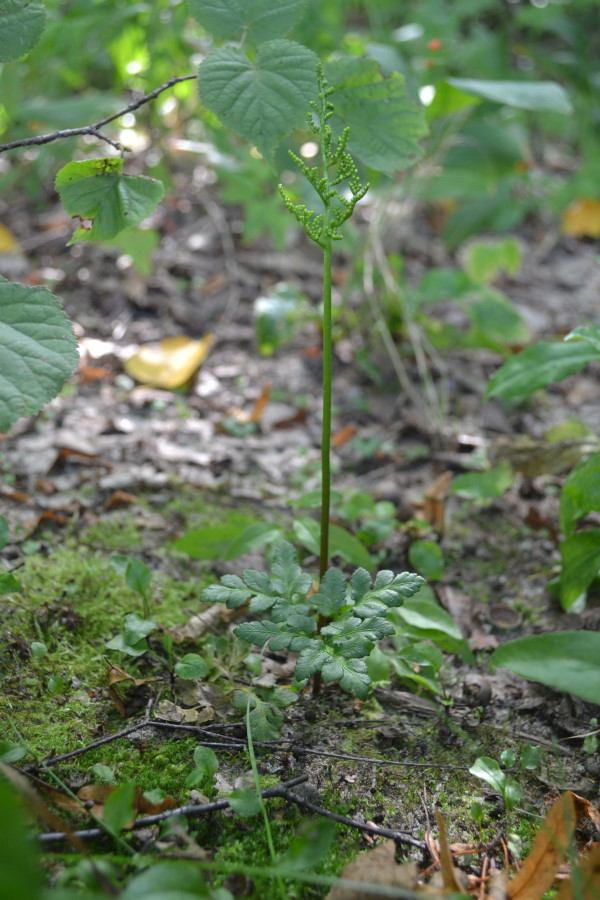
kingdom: Plantae
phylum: Tracheophyta
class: Polypodiopsida
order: Ophioglossales
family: Ophioglossaceae
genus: Sceptridium
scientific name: Sceptridium multifidum
